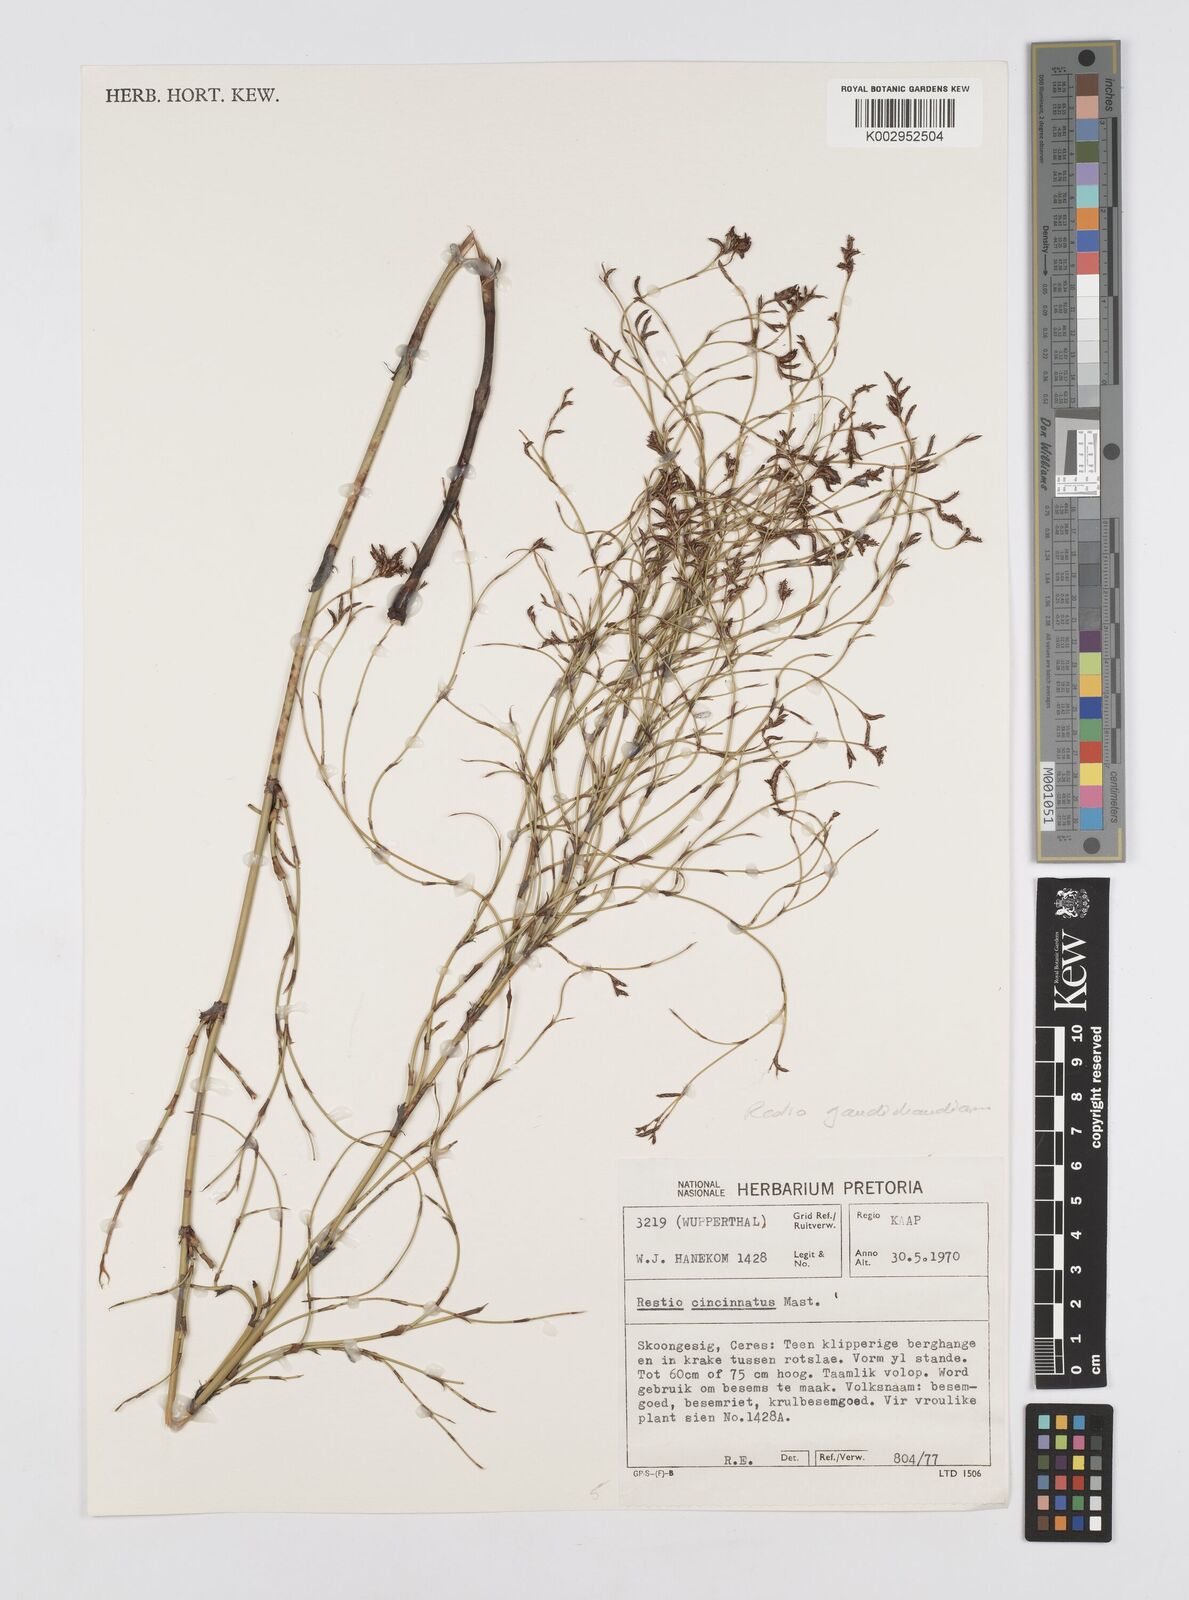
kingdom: Plantae
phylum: Tracheophyta
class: Liliopsida
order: Poales
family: Restionaceae
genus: Restio
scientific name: Restio gaudichaudianus
